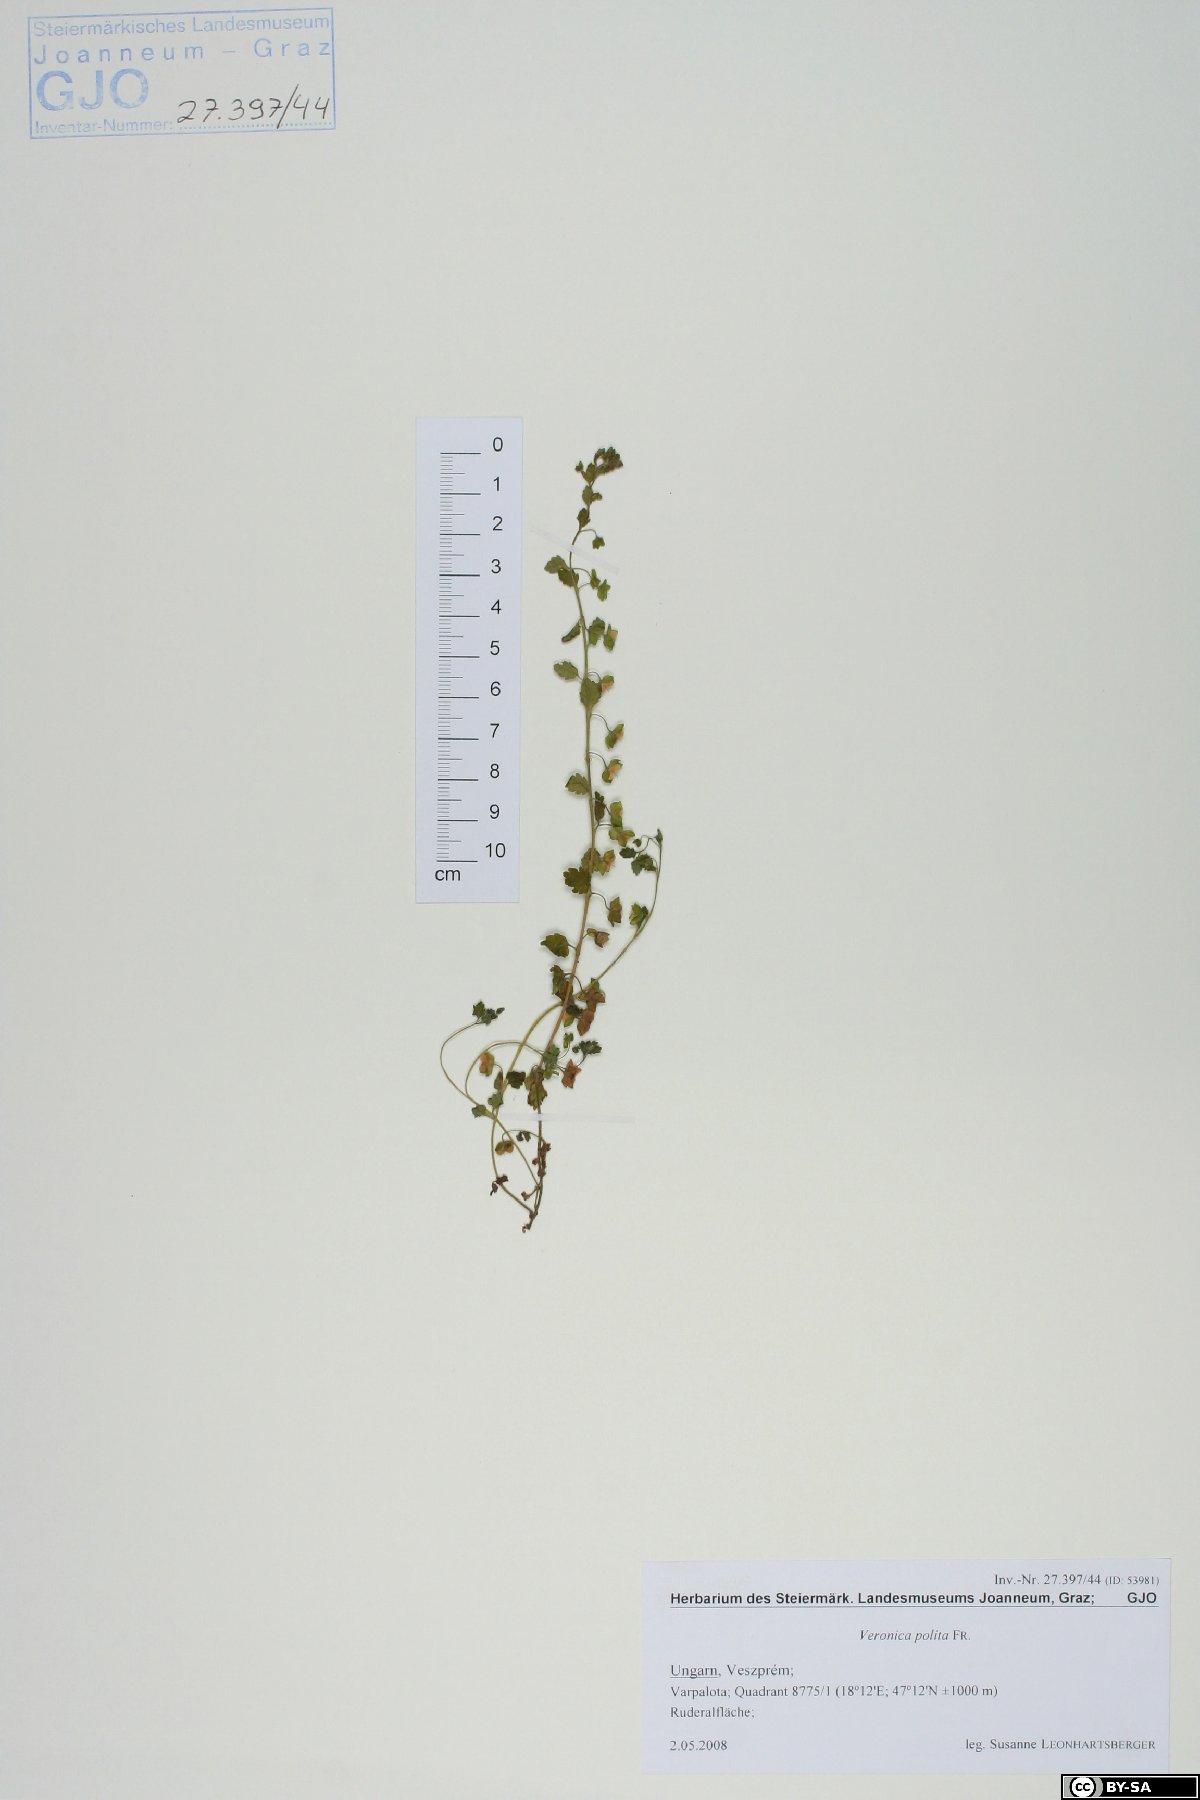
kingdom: Plantae
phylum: Tracheophyta
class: Magnoliopsida
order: Lamiales
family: Plantaginaceae
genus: Veronica
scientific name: Veronica polita
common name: Grey field-speedwell
